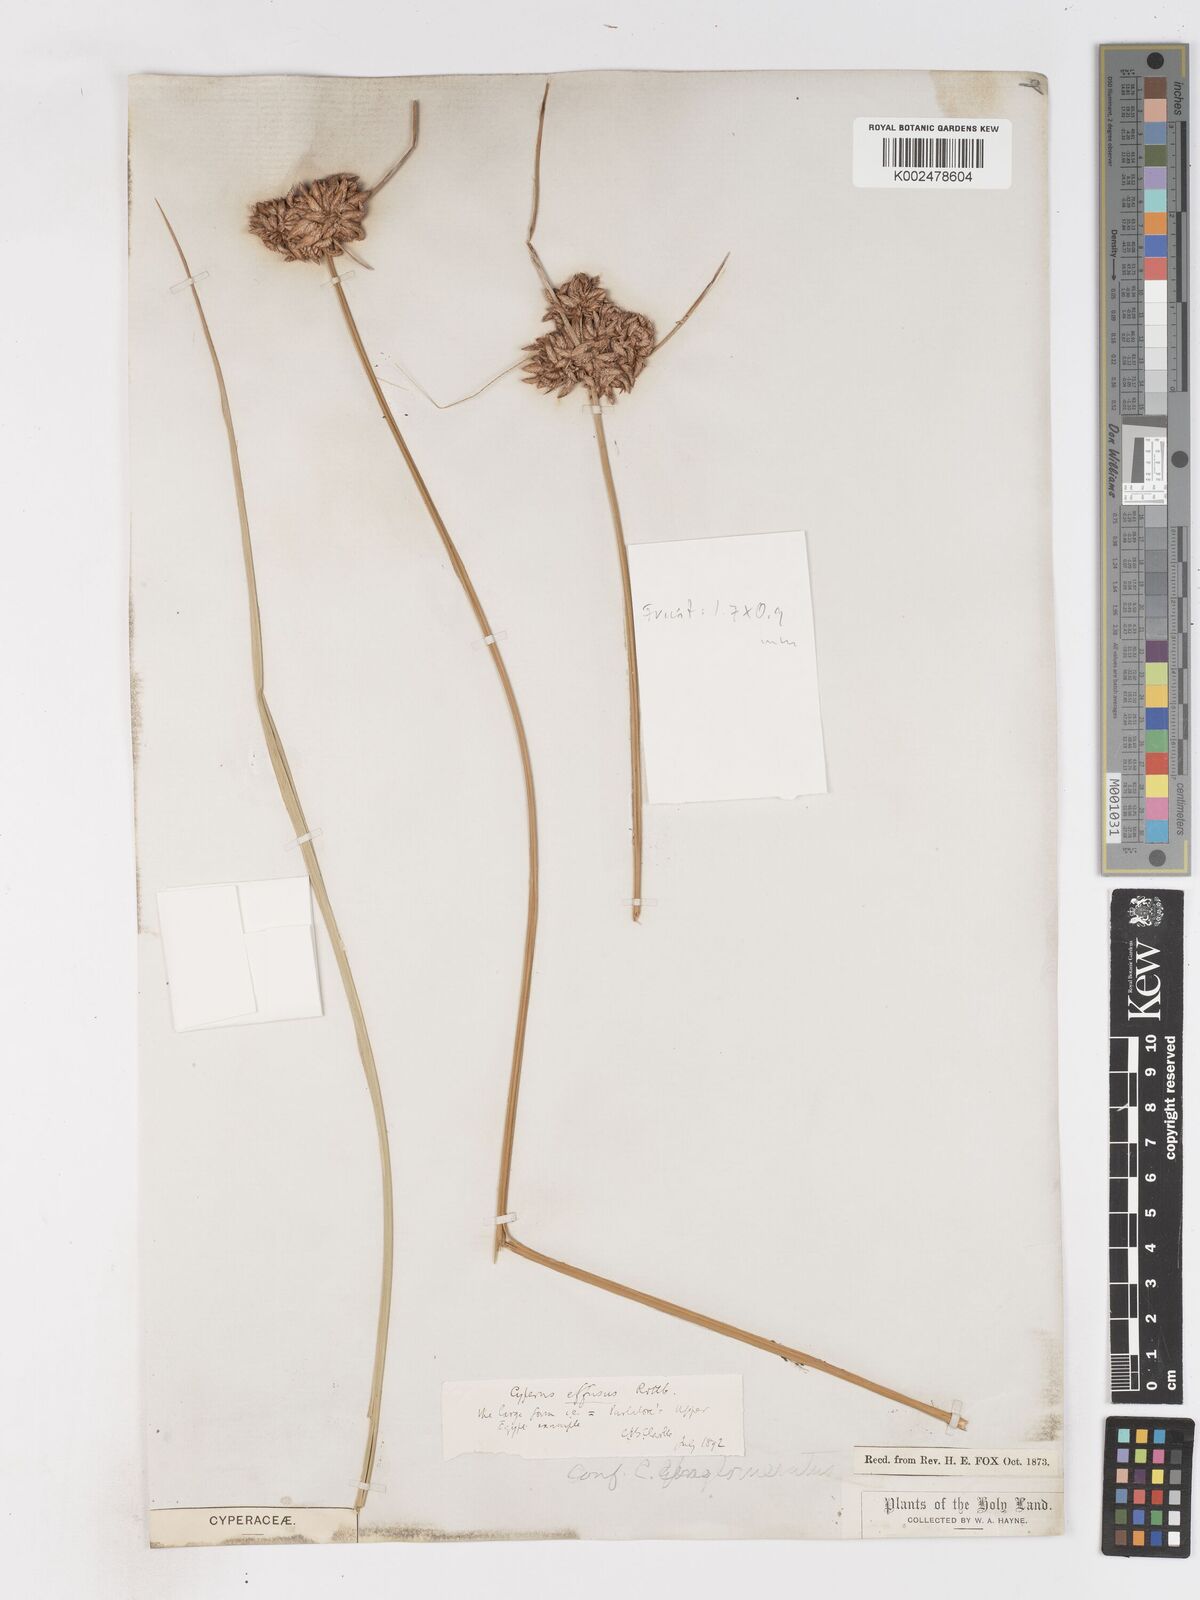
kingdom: Plantae
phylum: Tracheophyta
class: Liliopsida
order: Poales
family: Cyperaceae
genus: Cyperus
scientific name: Cyperus conglomeratus
